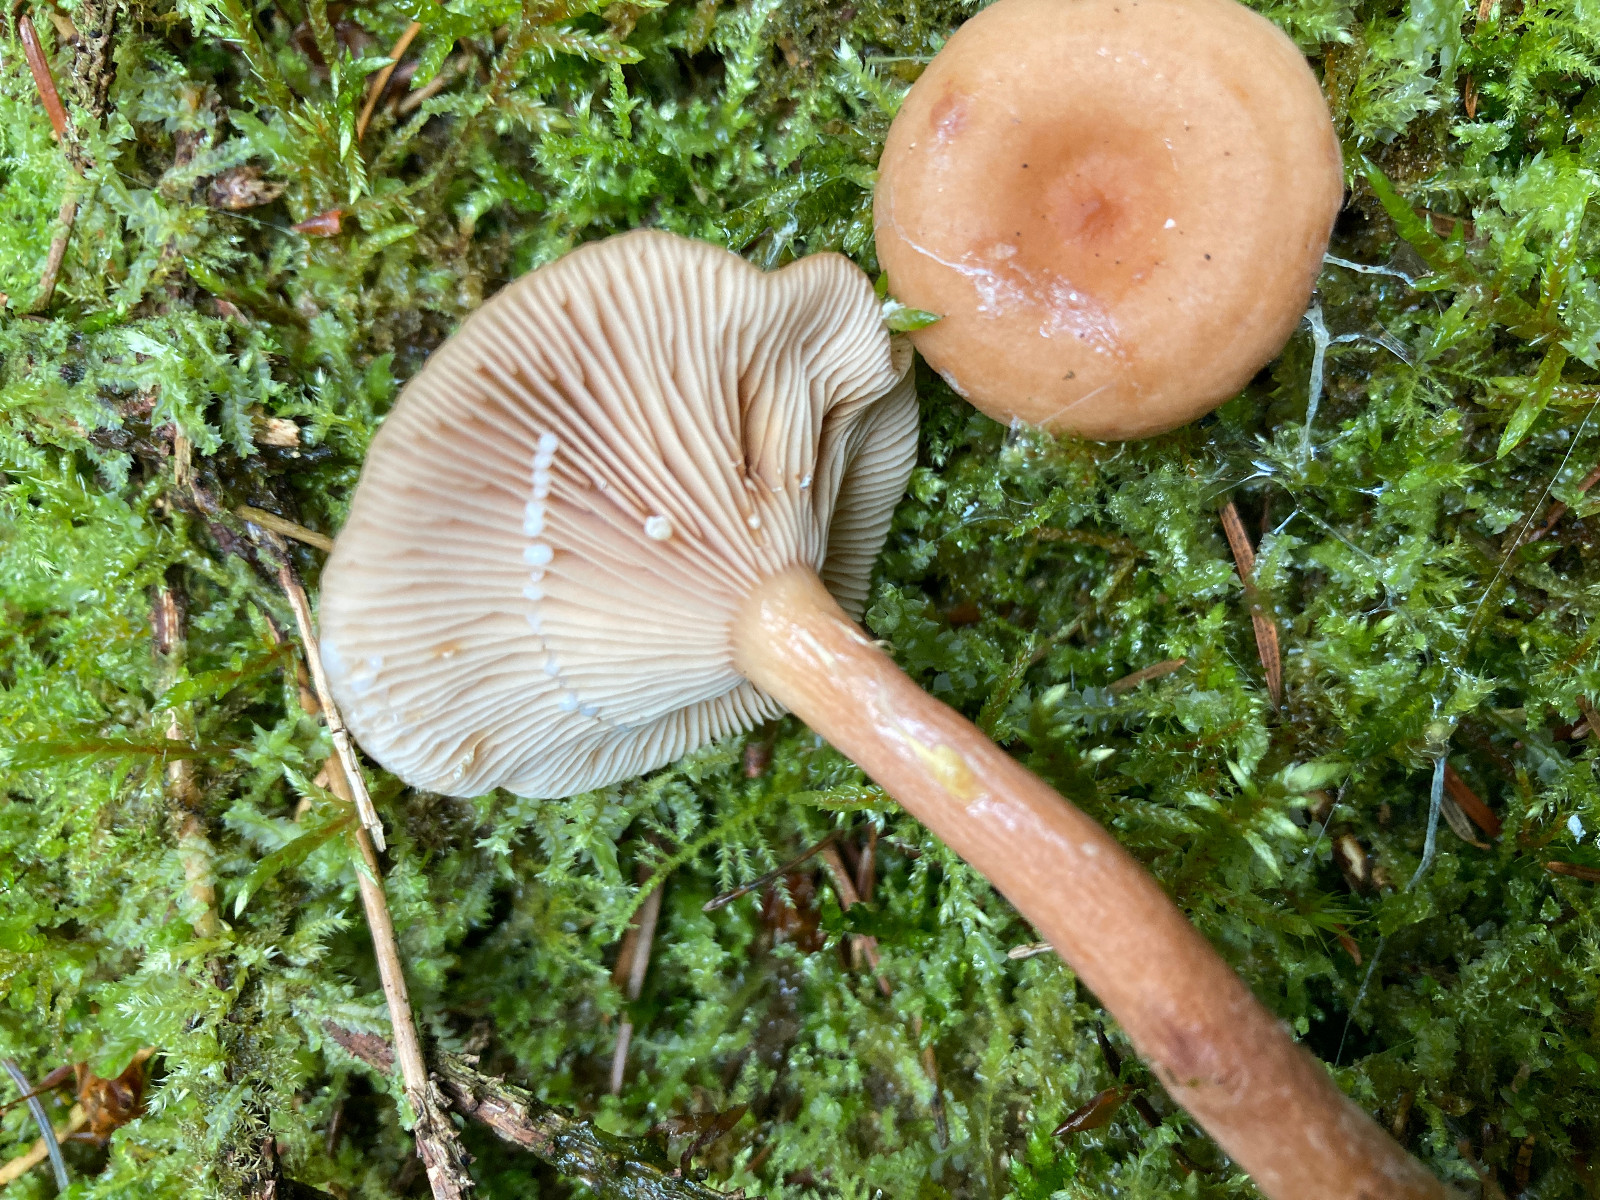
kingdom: Fungi
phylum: Basidiomycota
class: Agaricomycetes
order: Russulales
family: Russulaceae
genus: Lactarius
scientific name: Lactarius tabidus
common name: rynket mælkehat
